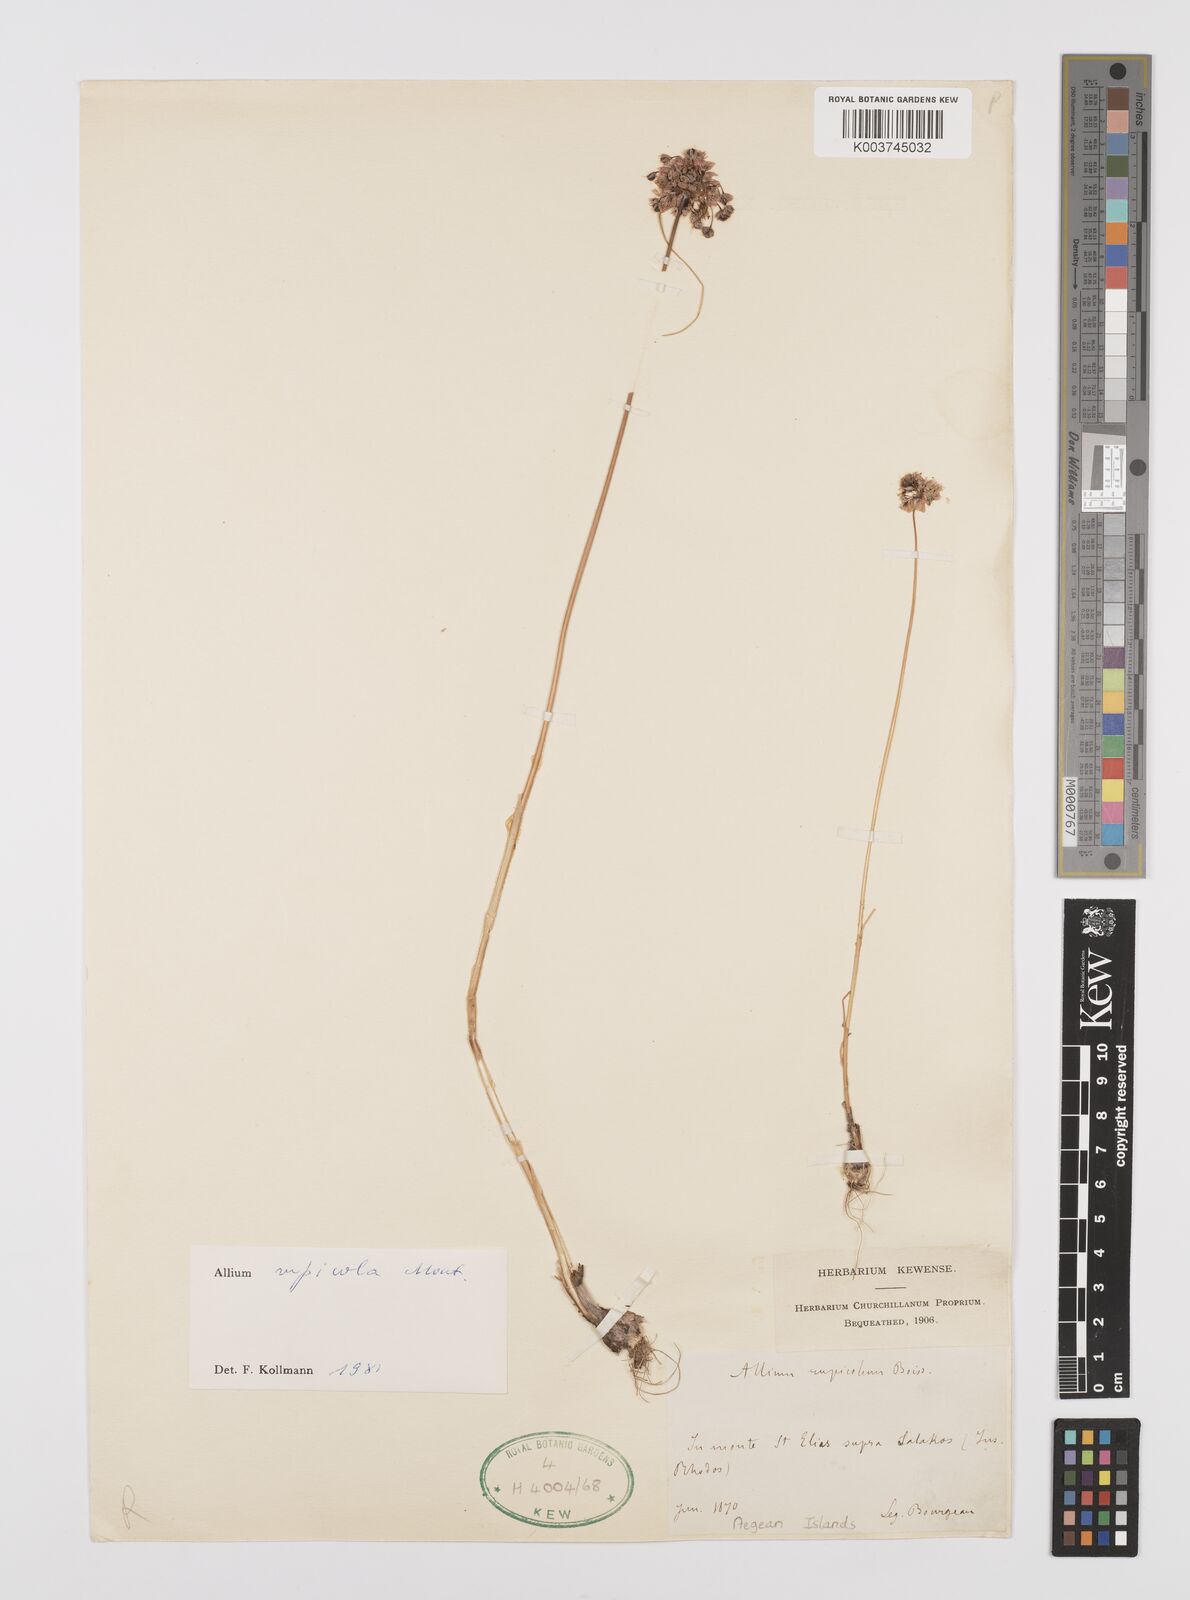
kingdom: Plantae
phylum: Tracheophyta
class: Liliopsida
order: Asparagales
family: Amaryllidaceae
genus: Allium
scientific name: Allium rupicola
